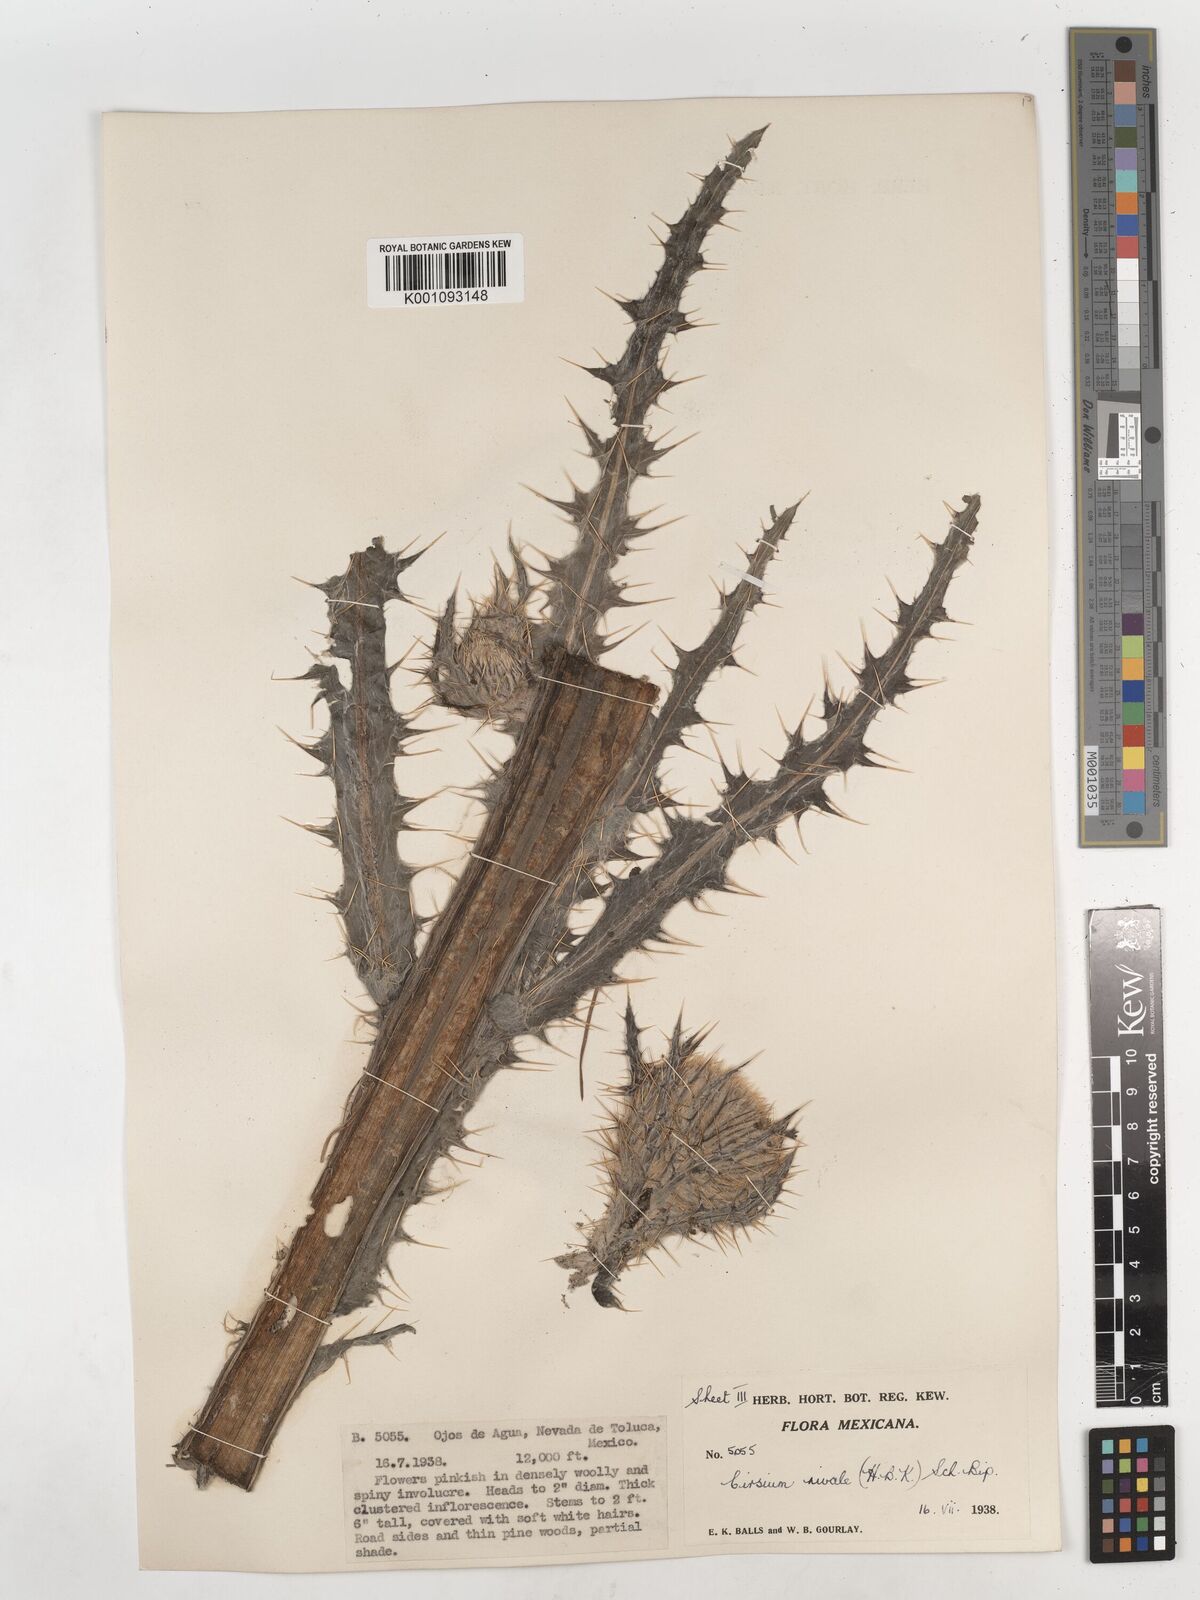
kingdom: Plantae
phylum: Tracheophyta
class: Magnoliopsida
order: Asterales
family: Asteraceae
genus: Cirsium
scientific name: Cirsium nivale
